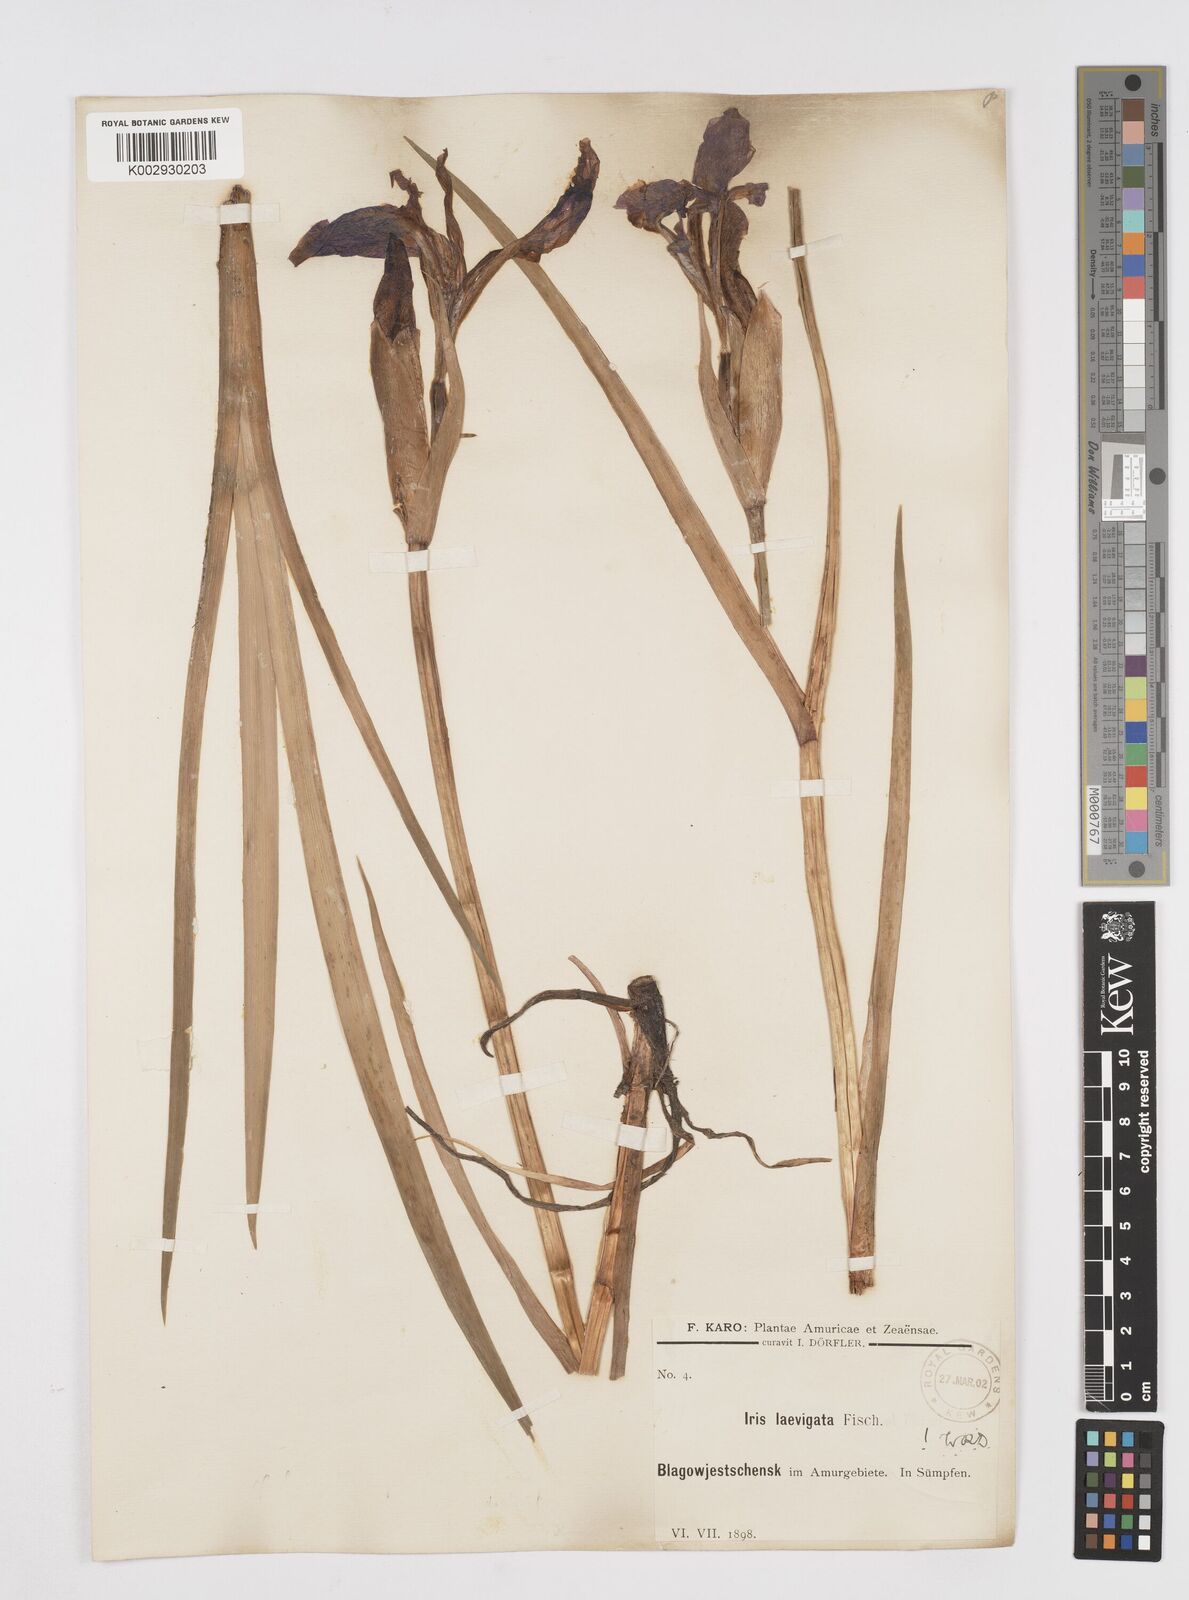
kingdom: Plantae
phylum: Tracheophyta
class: Liliopsida
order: Asparagales
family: Iridaceae
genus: Iris
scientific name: Iris laevigata
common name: Japanese iris
